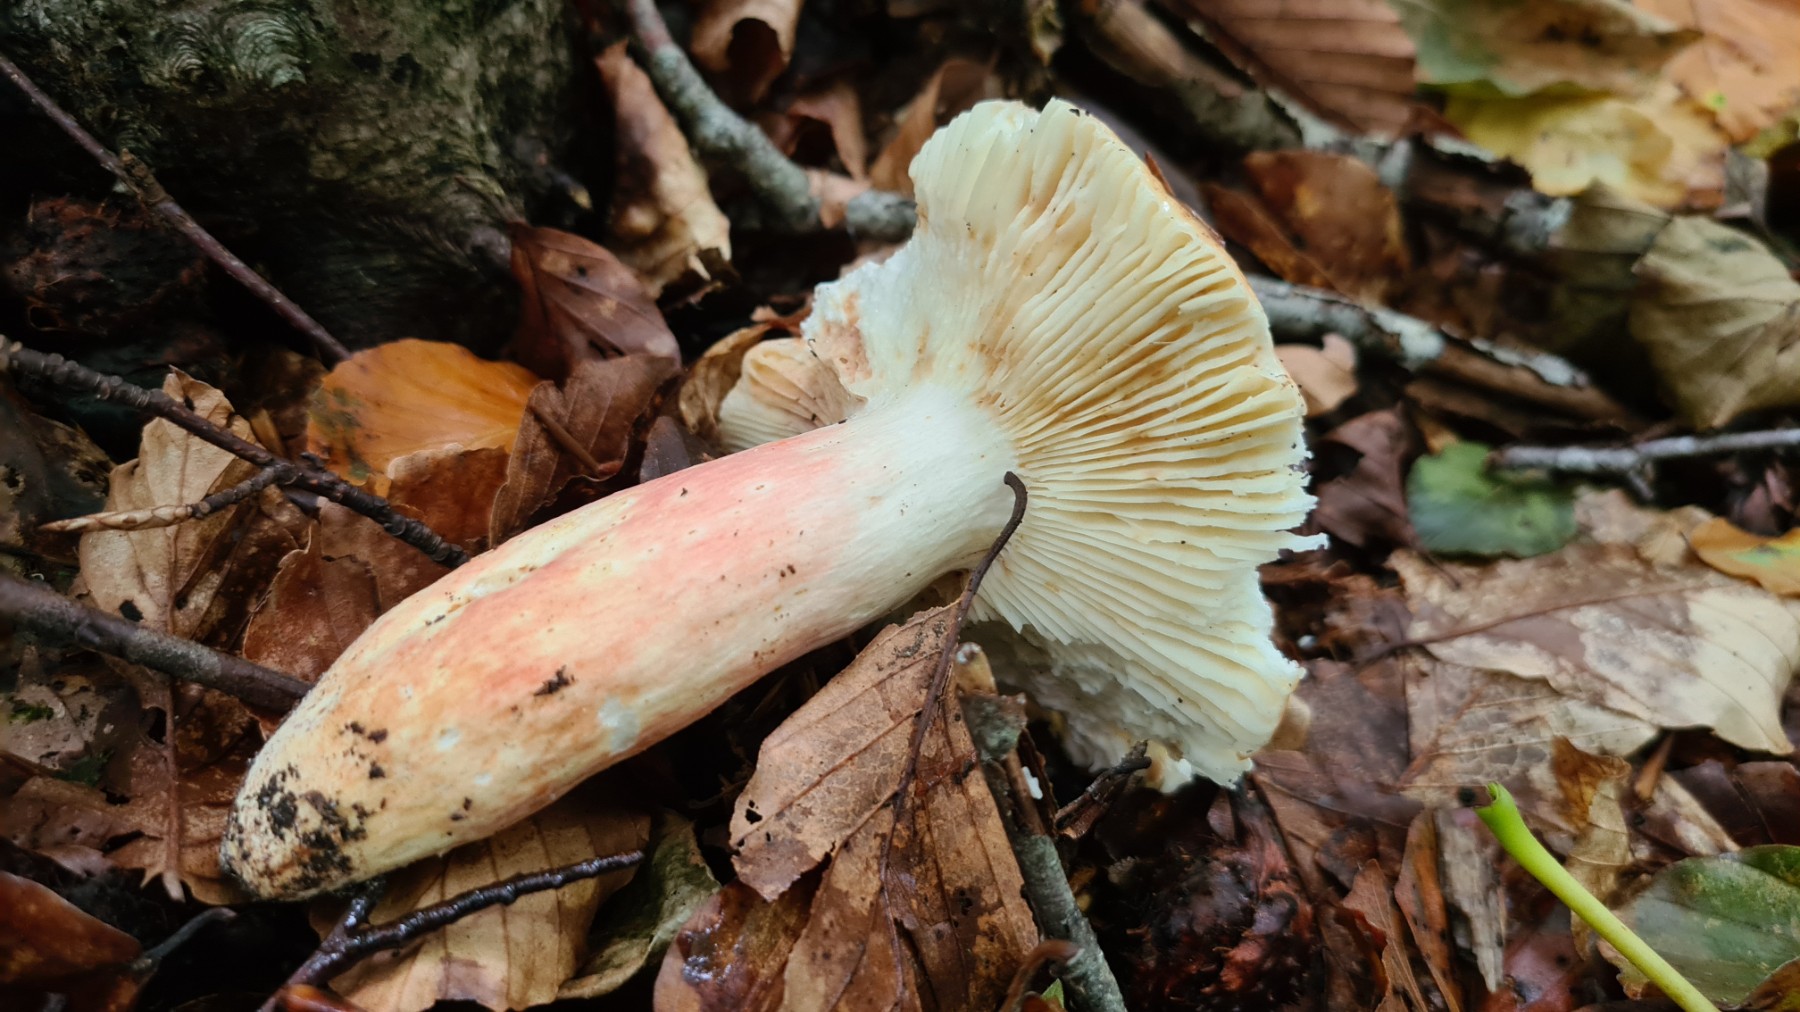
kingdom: Fungi
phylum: Basidiomycota
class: Agaricomycetes
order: Russulales
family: Russulaceae
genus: Russula
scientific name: Russula rosea
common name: fastkødet skørhat
